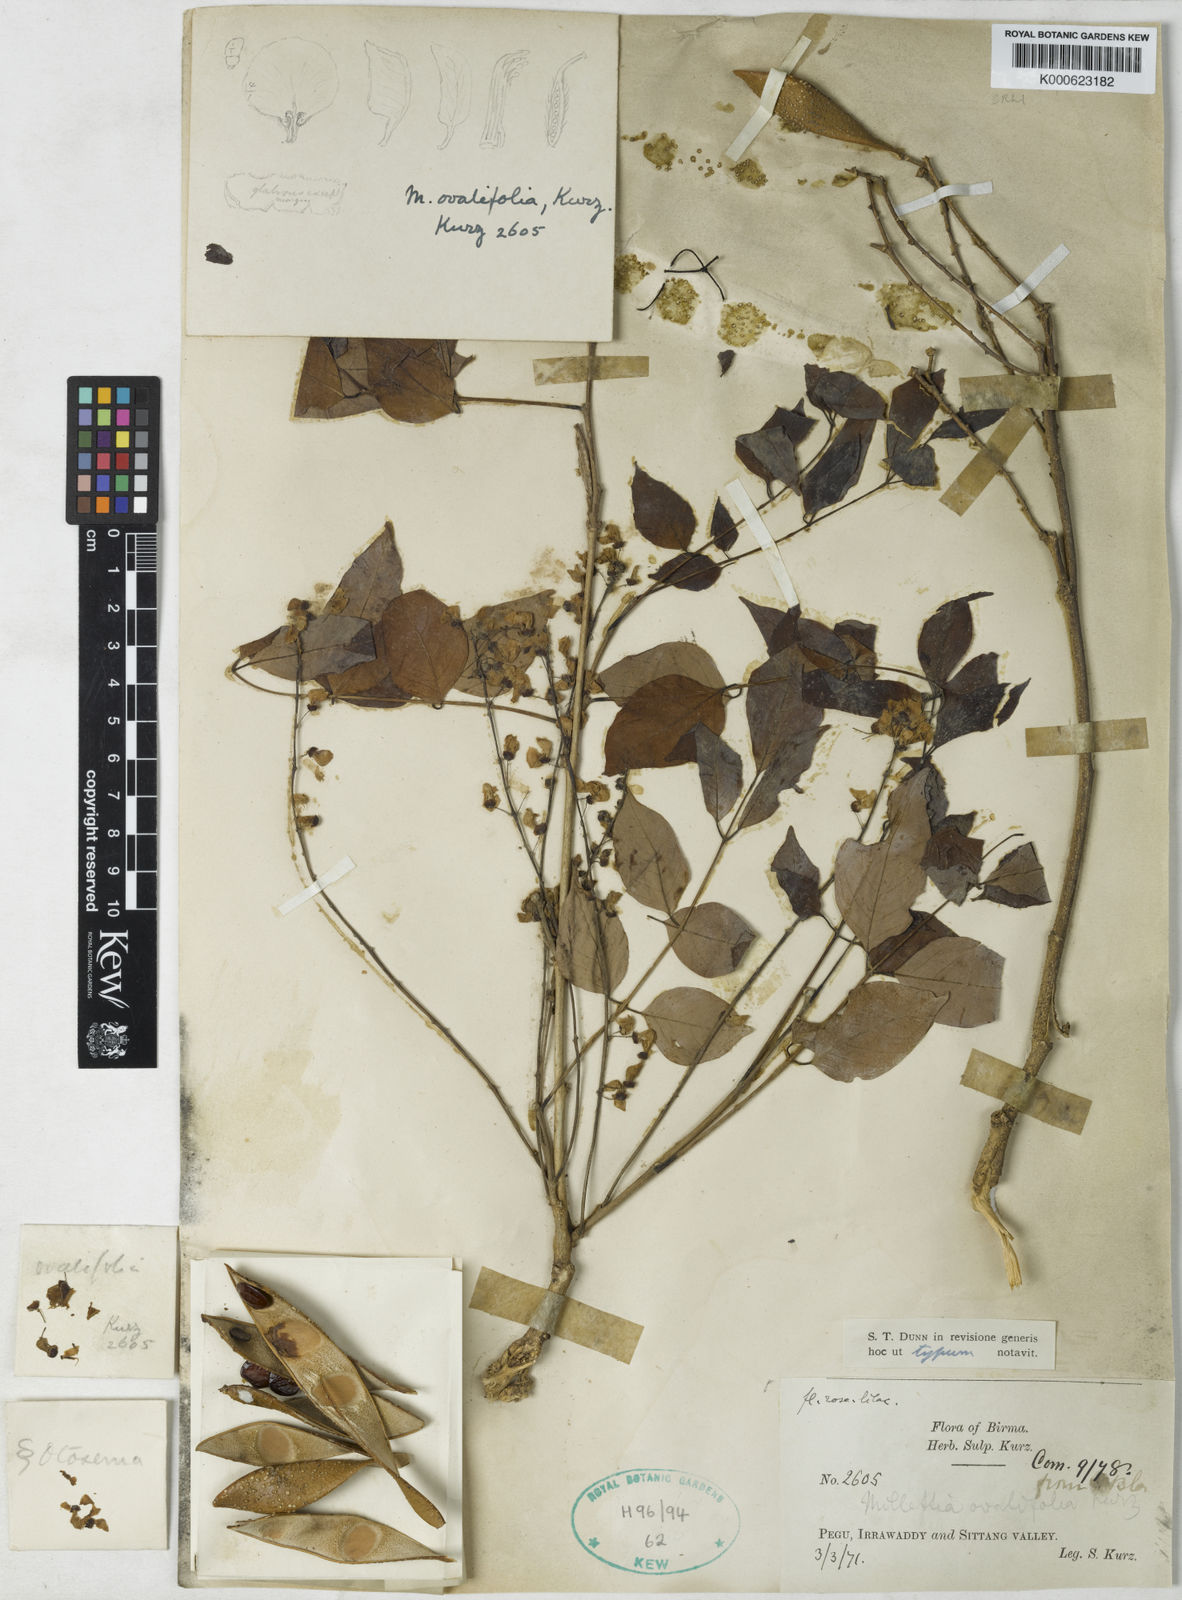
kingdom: Plantae
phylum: Tracheophyta
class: Magnoliopsida
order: Fabales
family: Fabaceae
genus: Millettia
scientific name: Millettia
